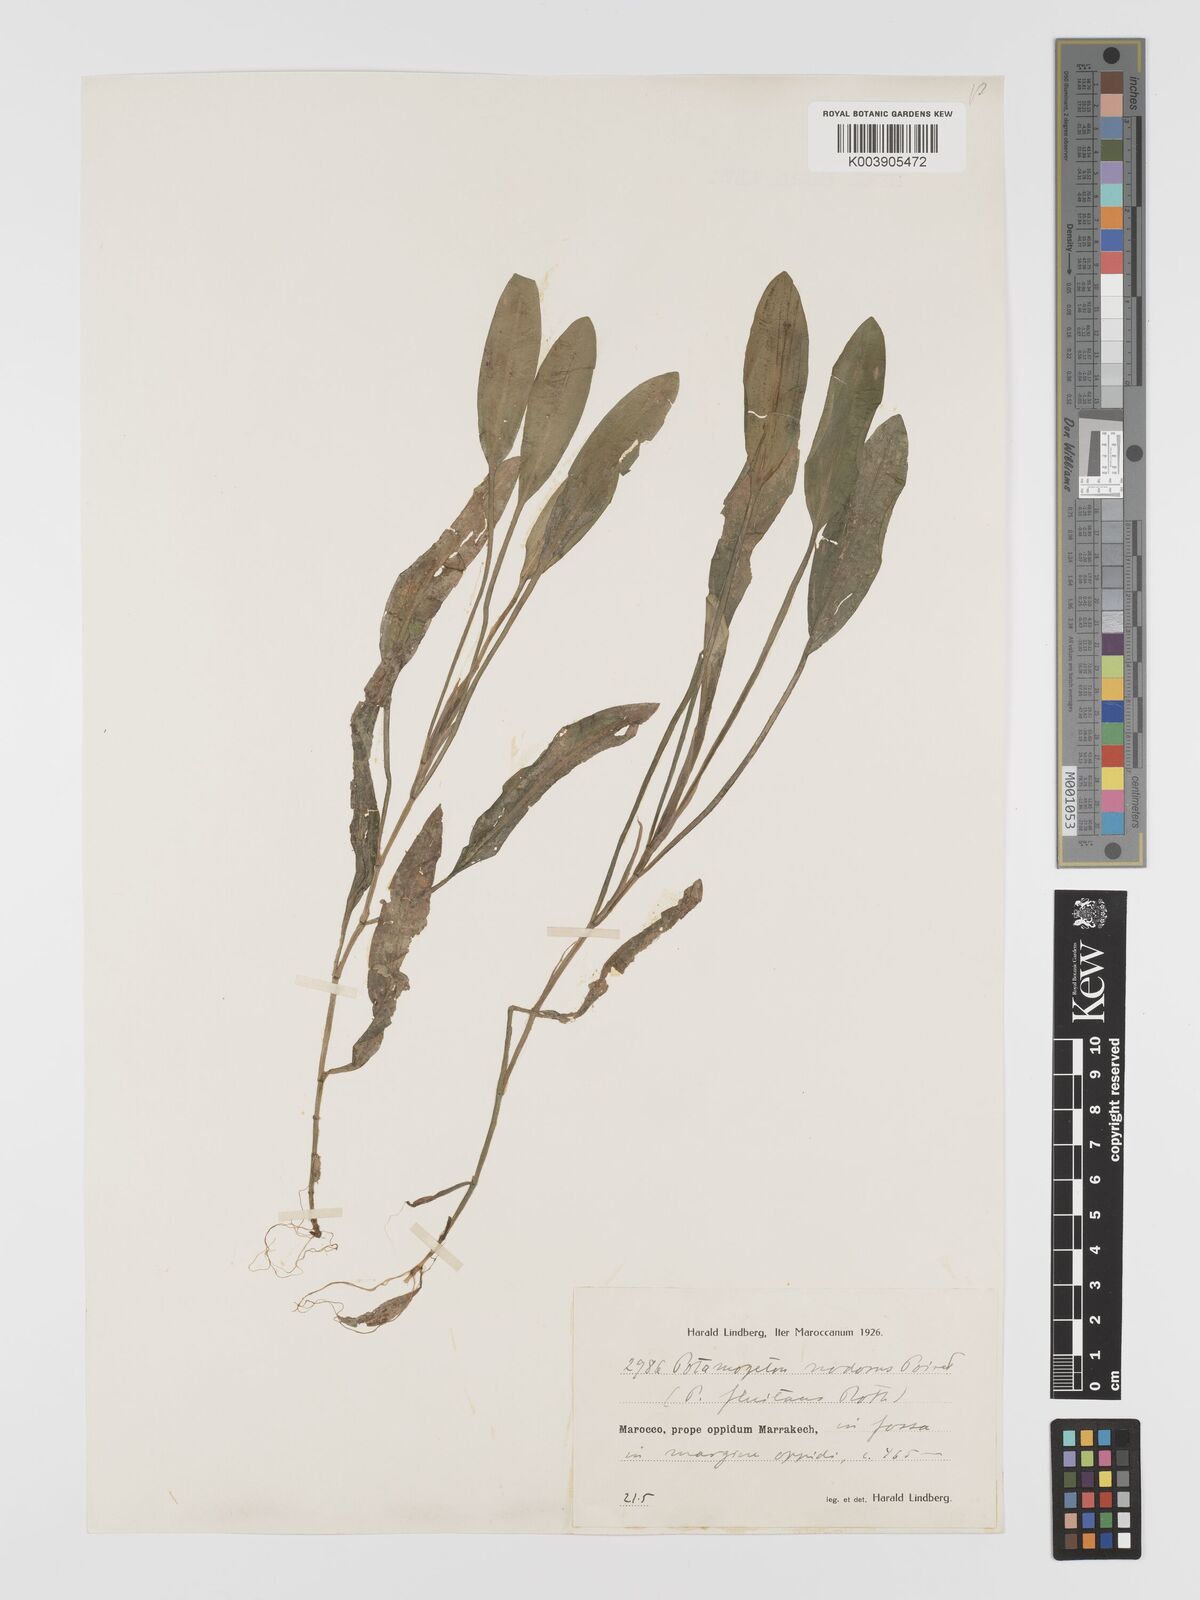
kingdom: Plantae
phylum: Tracheophyta
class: Liliopsida
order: Alismatales
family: Potamogetonaceae
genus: Potamogeton
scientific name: Potamogeton nodosus
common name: Loddon pondweed
